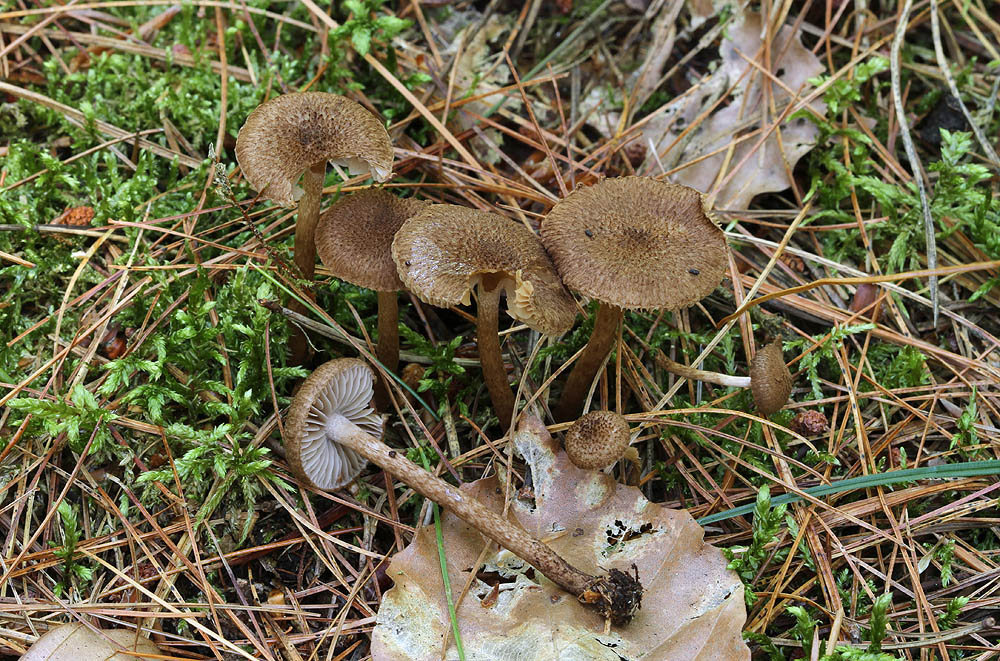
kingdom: Fungi
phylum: Basidiomycota
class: Agaricomycetes
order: Agaricales
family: Inocybaceae
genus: Inocybe
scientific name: Inocybe stellatospora
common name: spidsskællet trævlhat
